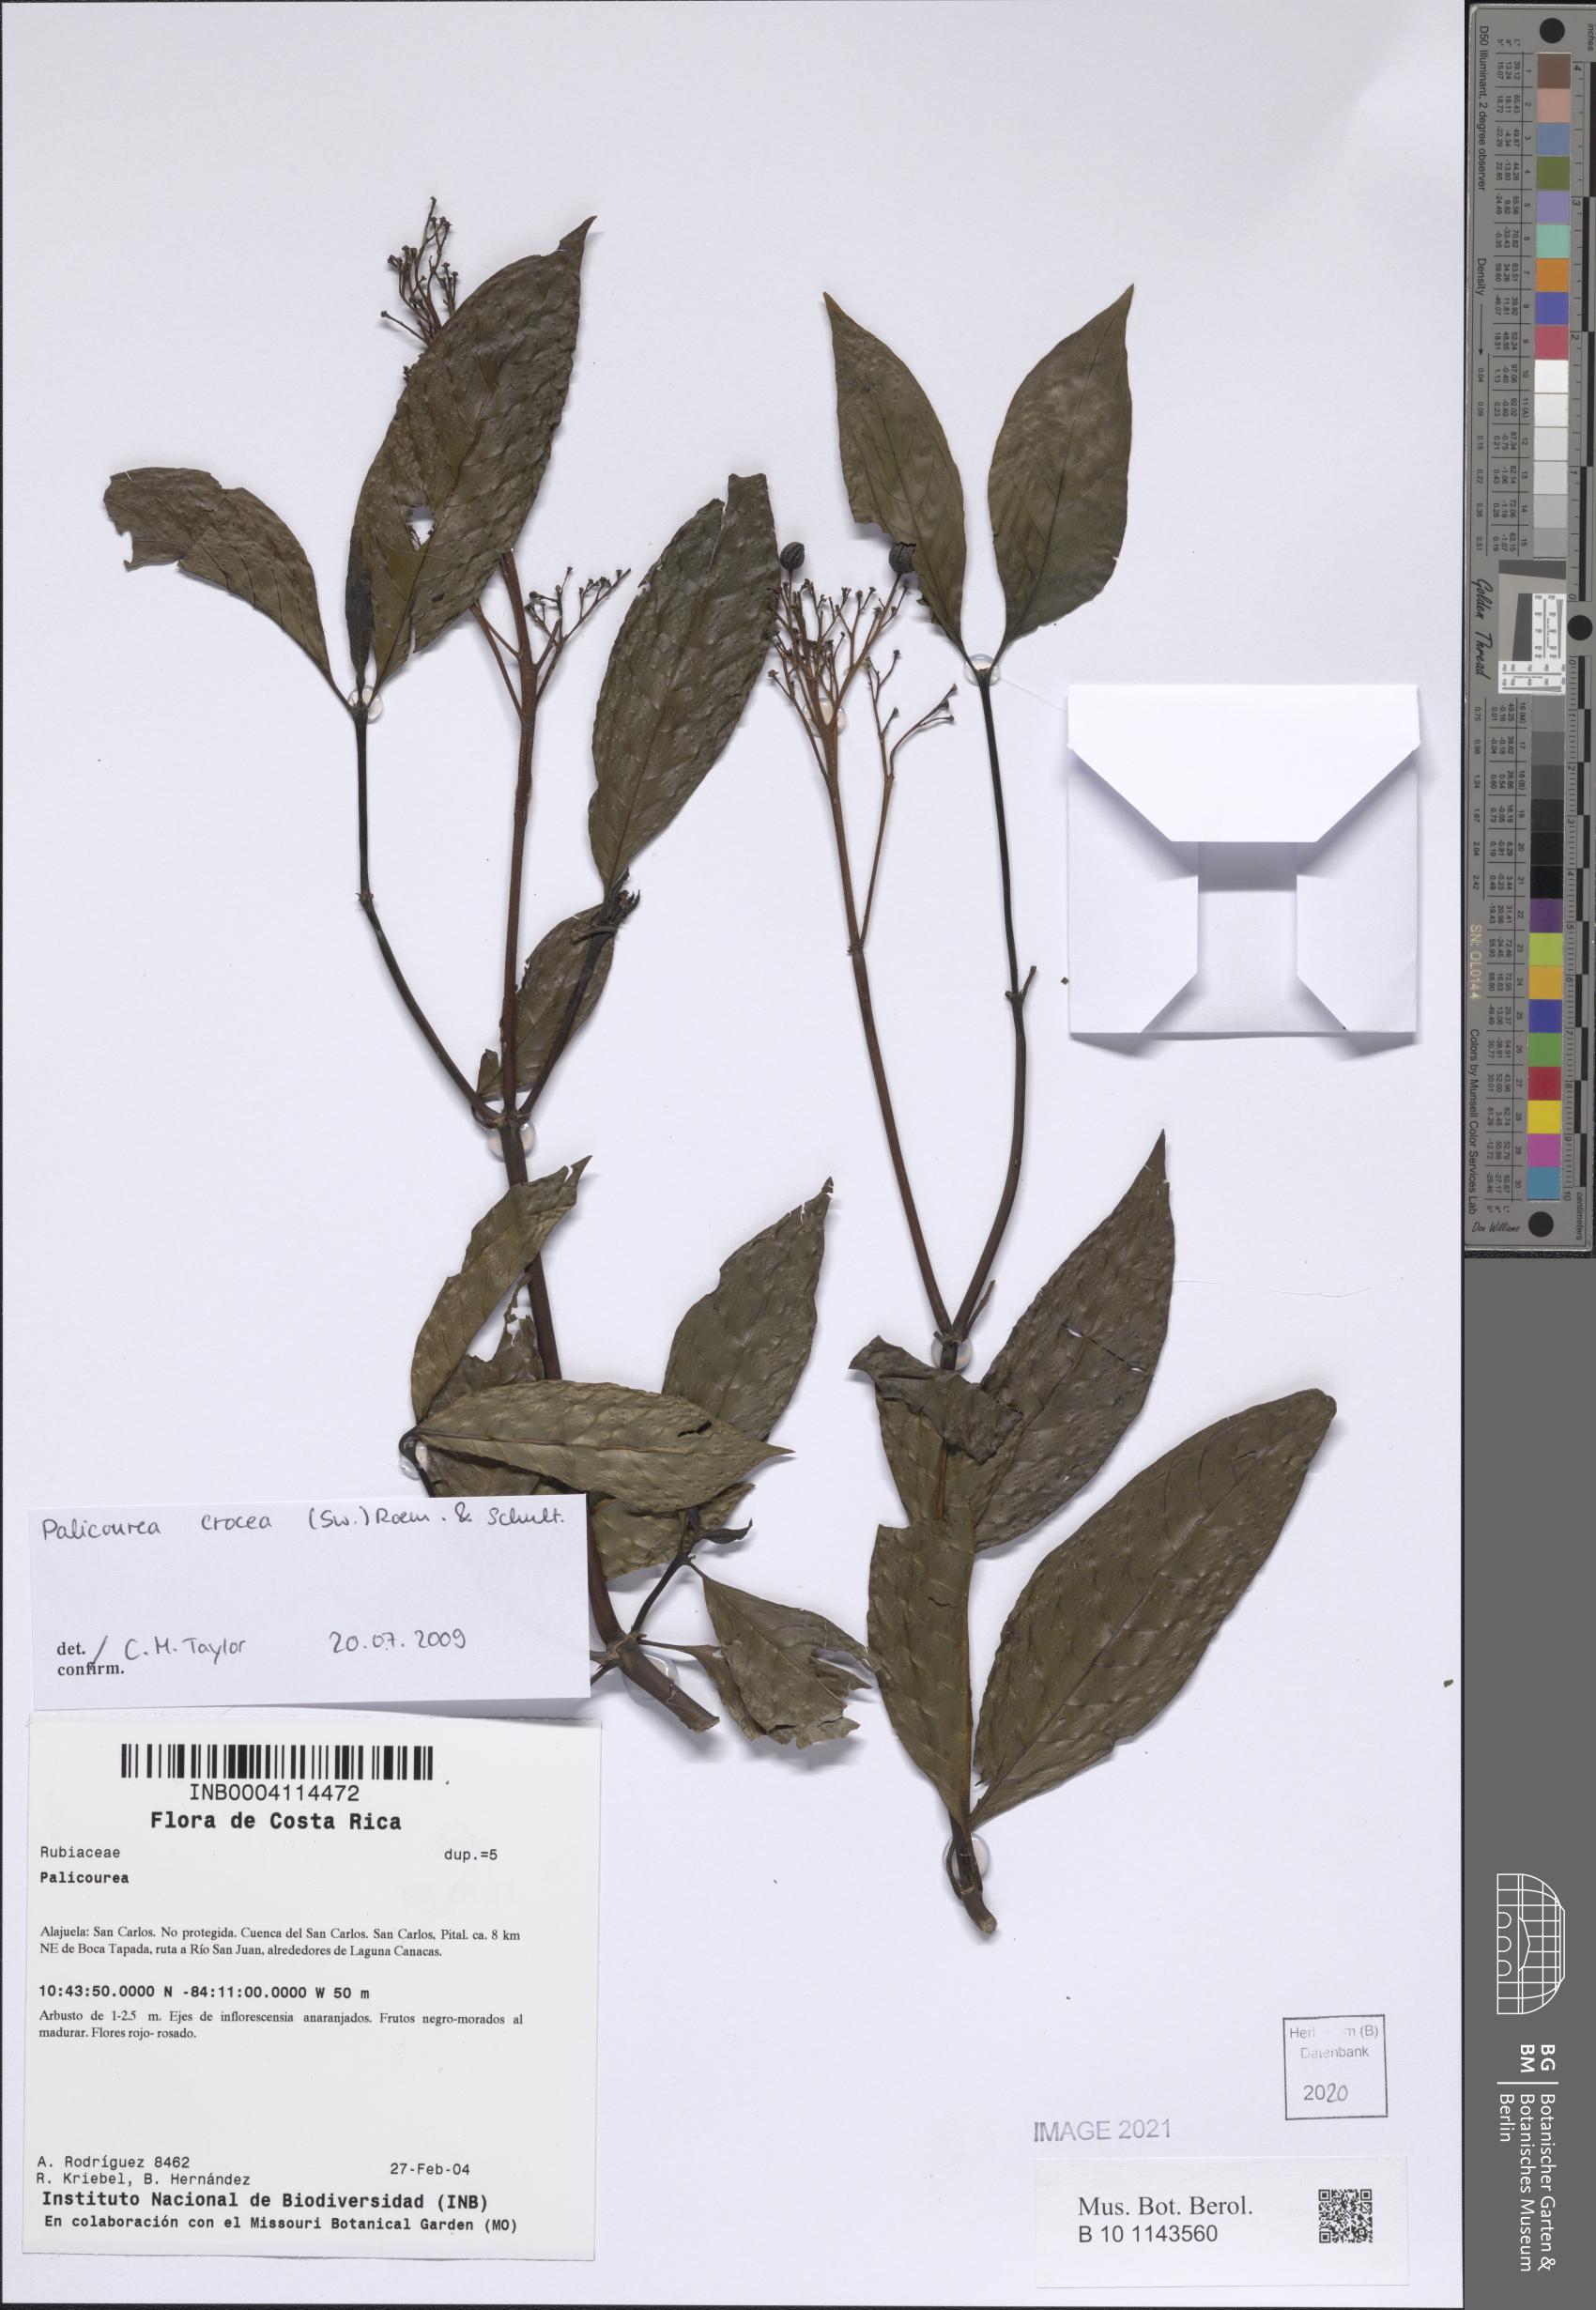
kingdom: Plantae
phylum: Tracheophyta
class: Magnoliopsida
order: Gentianales
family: Rubiaceae
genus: Palicourea
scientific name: Palicourea crocea
